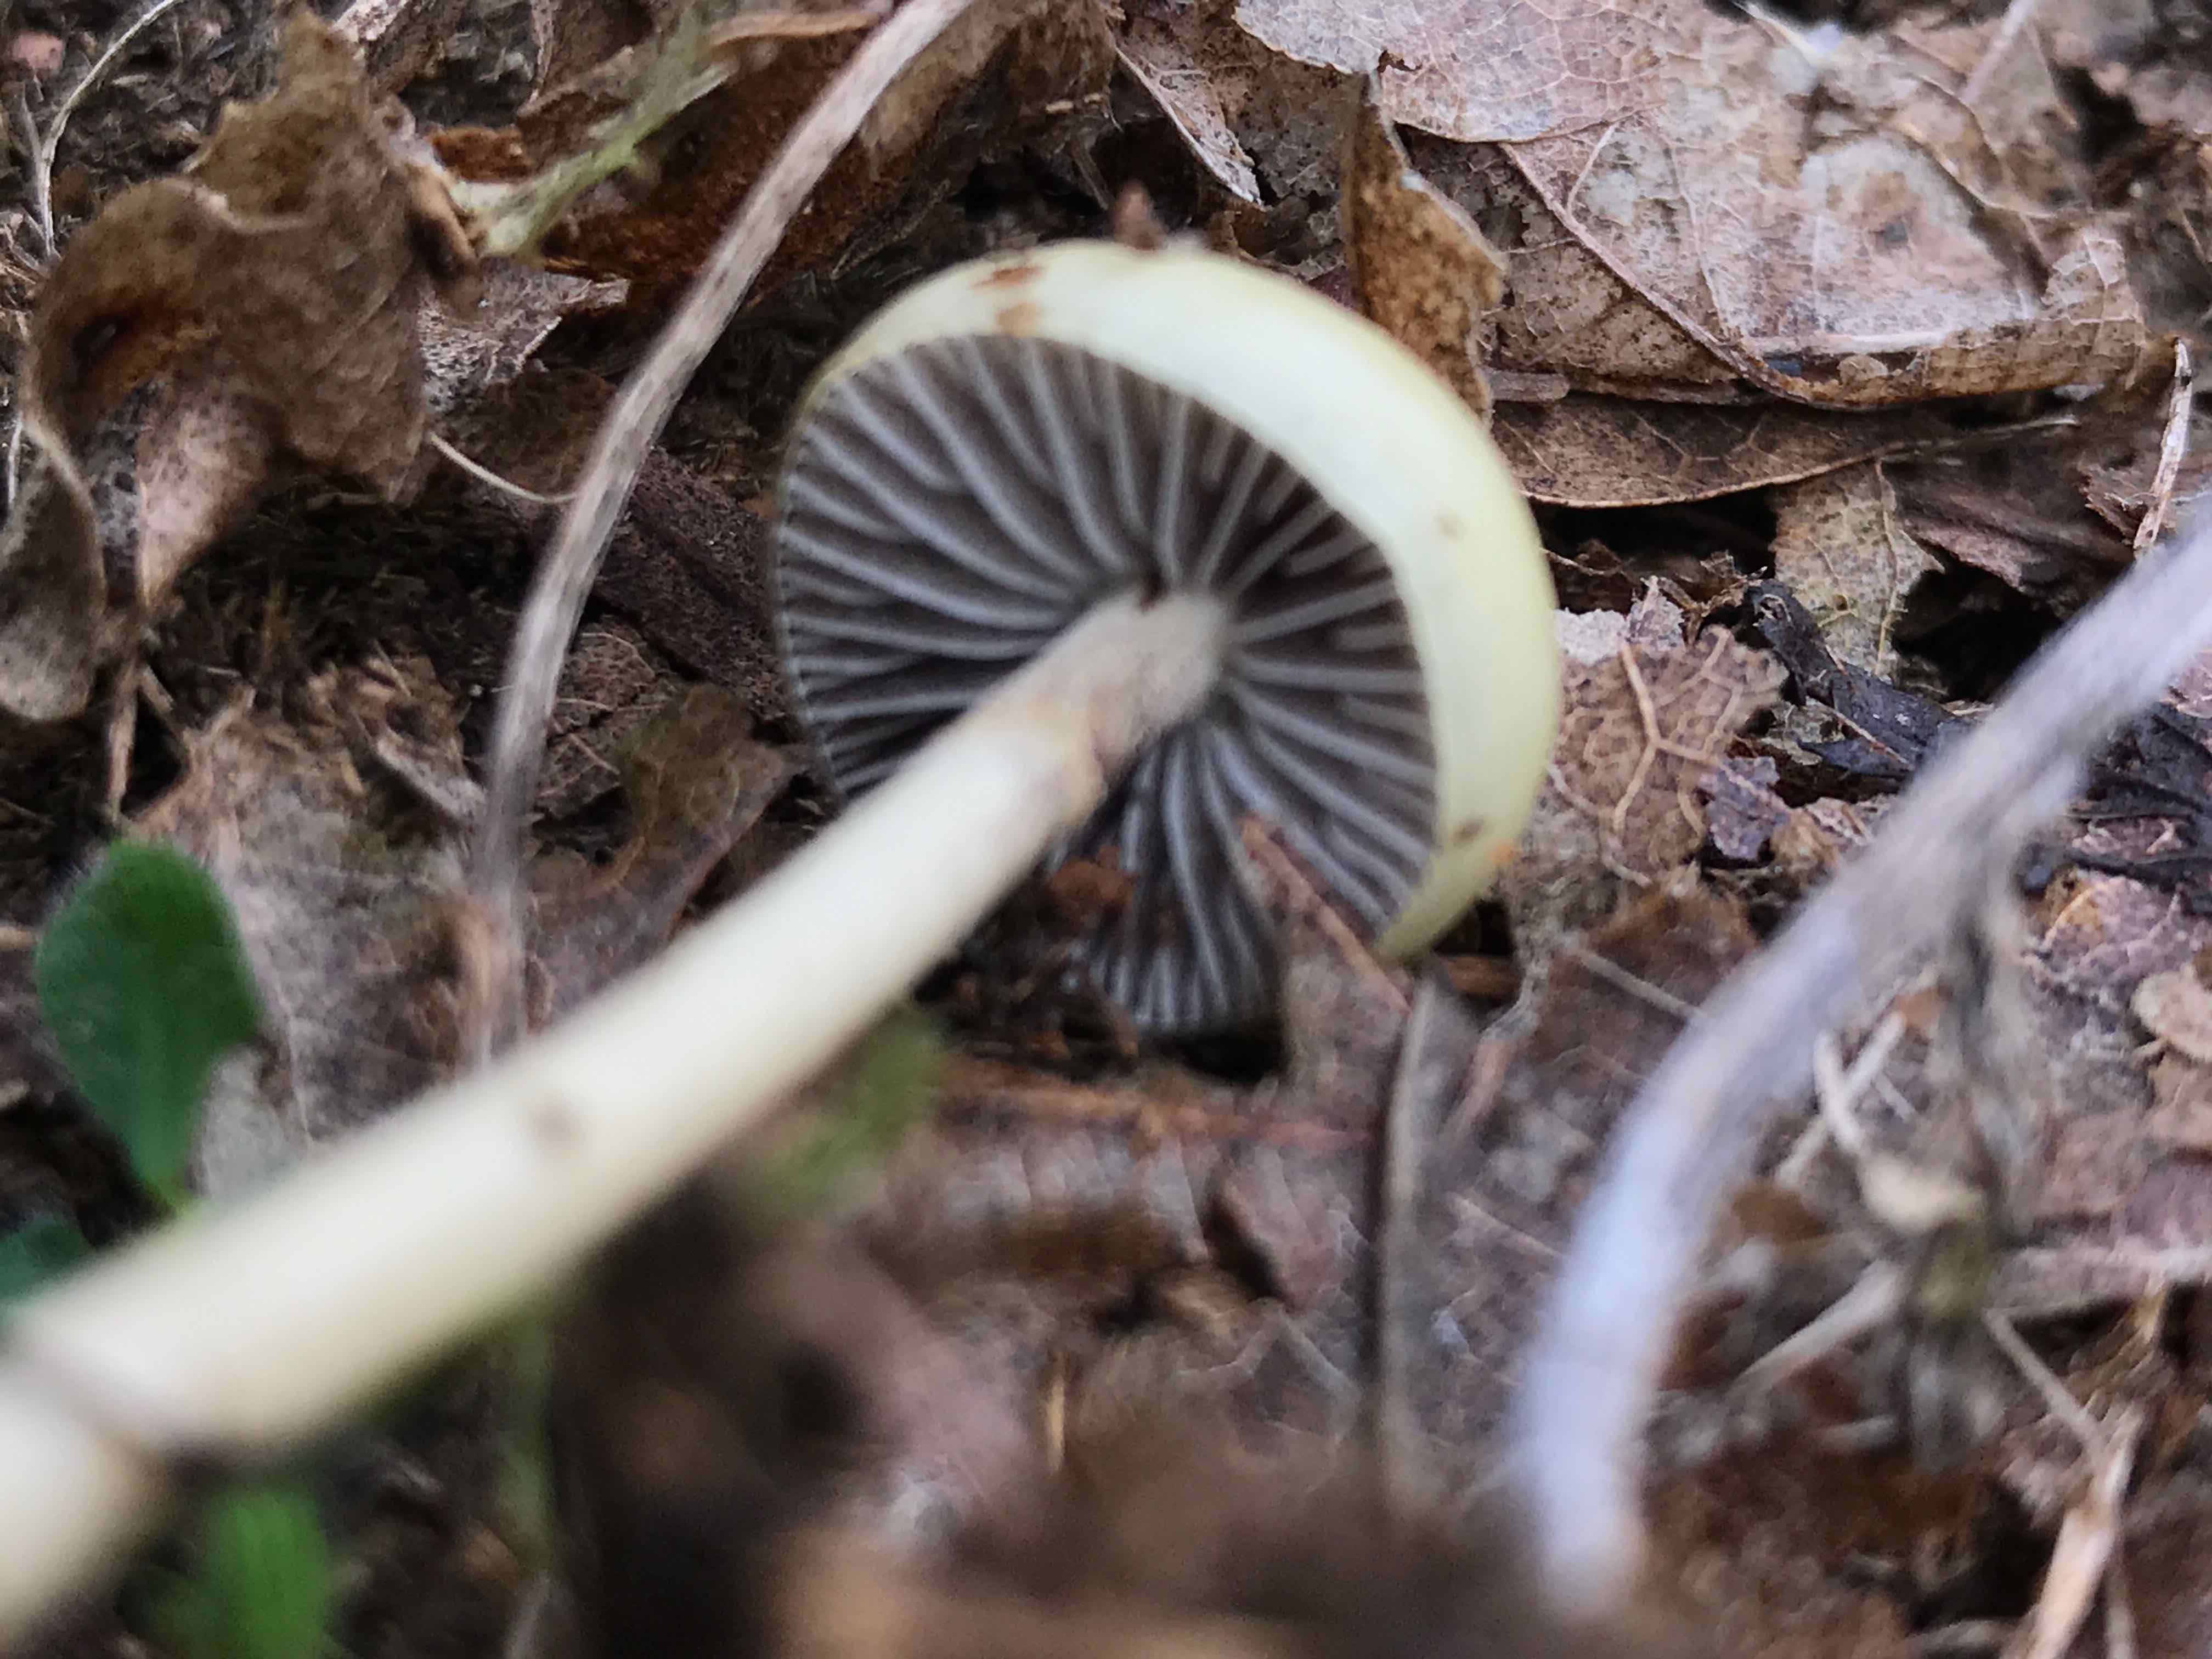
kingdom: Fungi
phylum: Basidiomycota
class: Agaricomycetes
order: Agaricales
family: Strophariaceae
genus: Protostropharia
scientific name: Protostropharia semiglobata
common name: halvkugleformet bredblad
